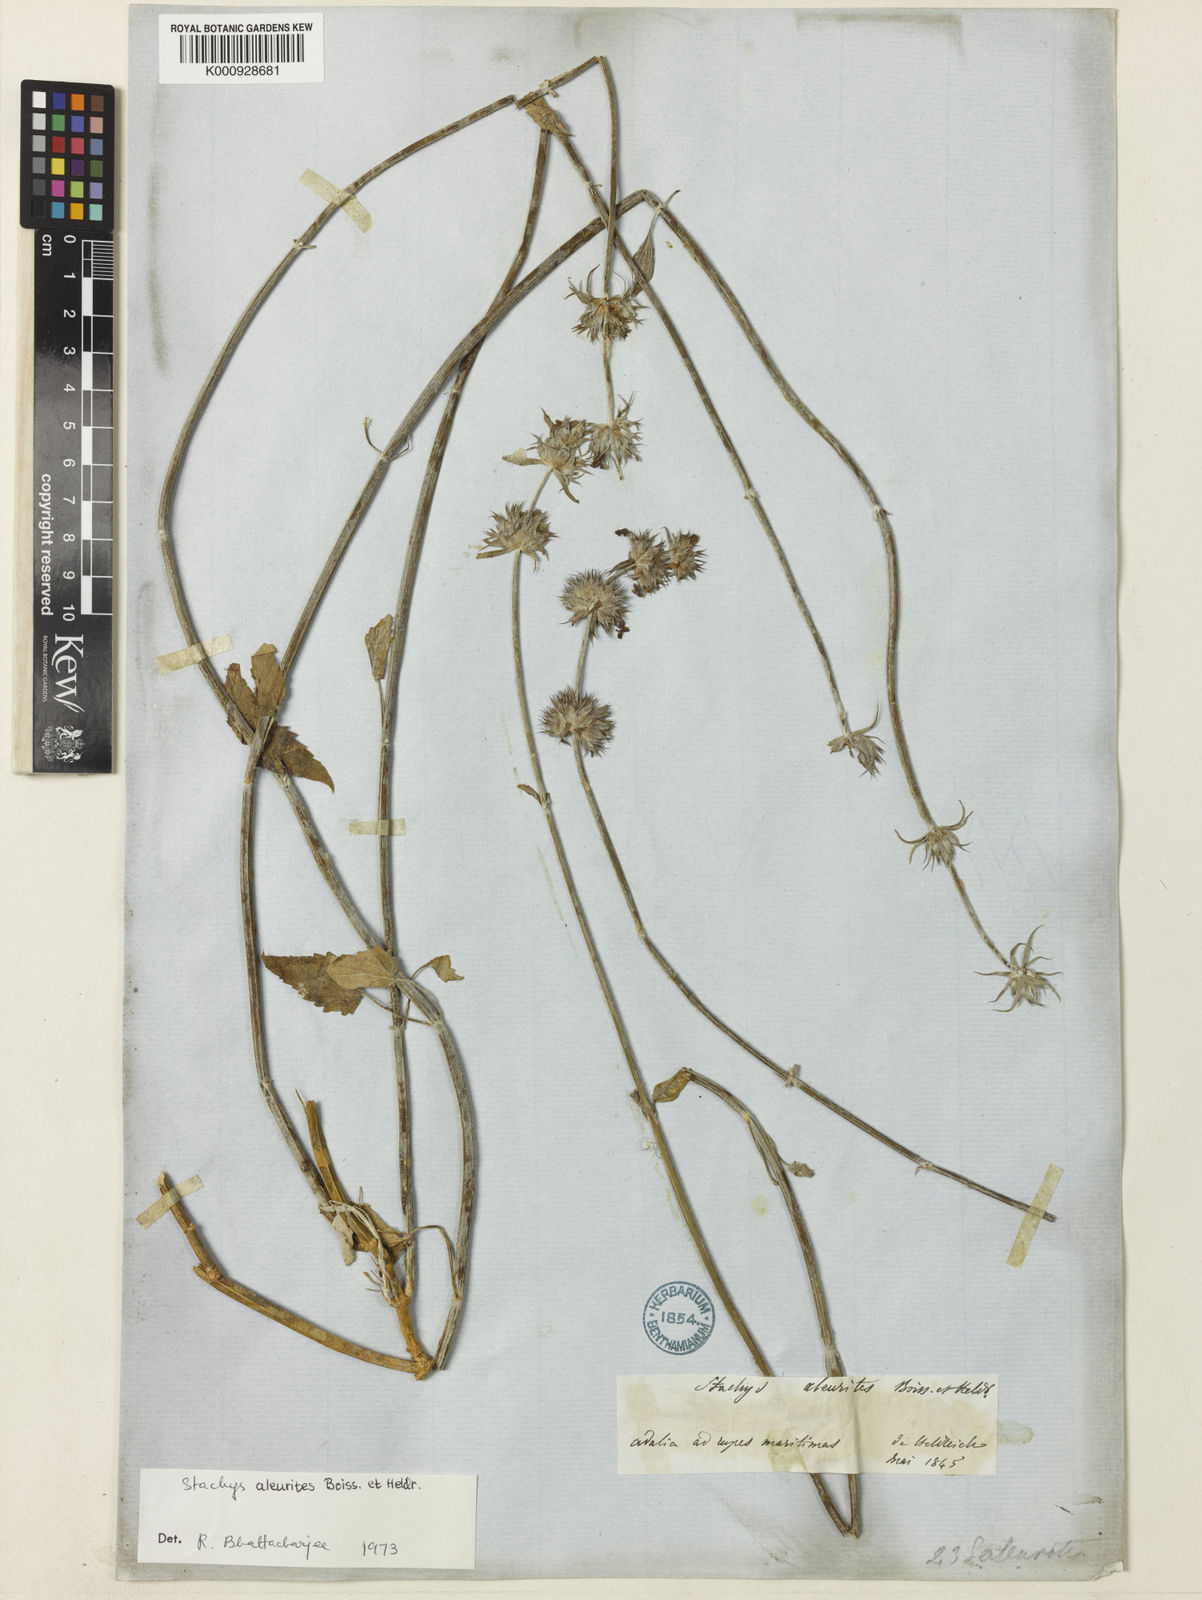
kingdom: Plantae
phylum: Tracheophyta
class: Magnoliopsida
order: Lamiales
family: Lamiaceae
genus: Stachys
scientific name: Stachys aleurites
